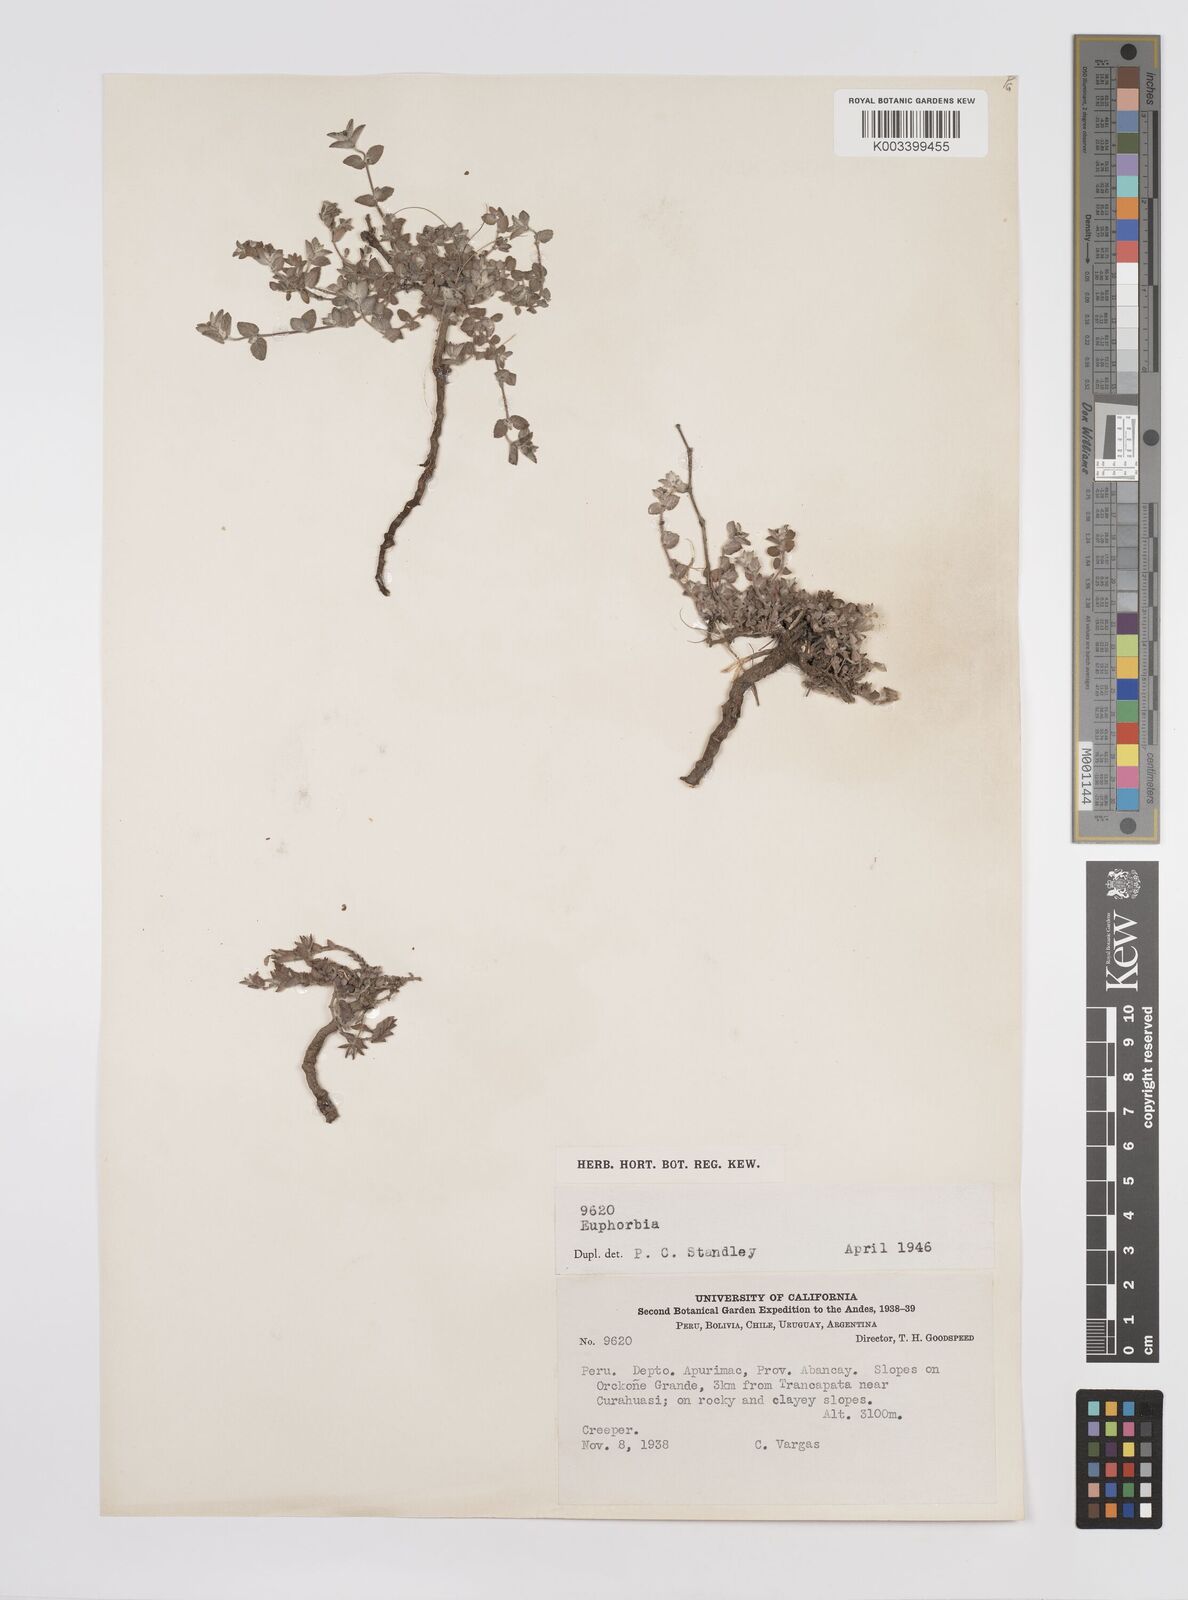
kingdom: Plantae
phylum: Tracheophyta
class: Magnoliopsida
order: Malpighiales
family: Euphorbiaceae
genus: Euphorbia
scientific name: Euphorbia
